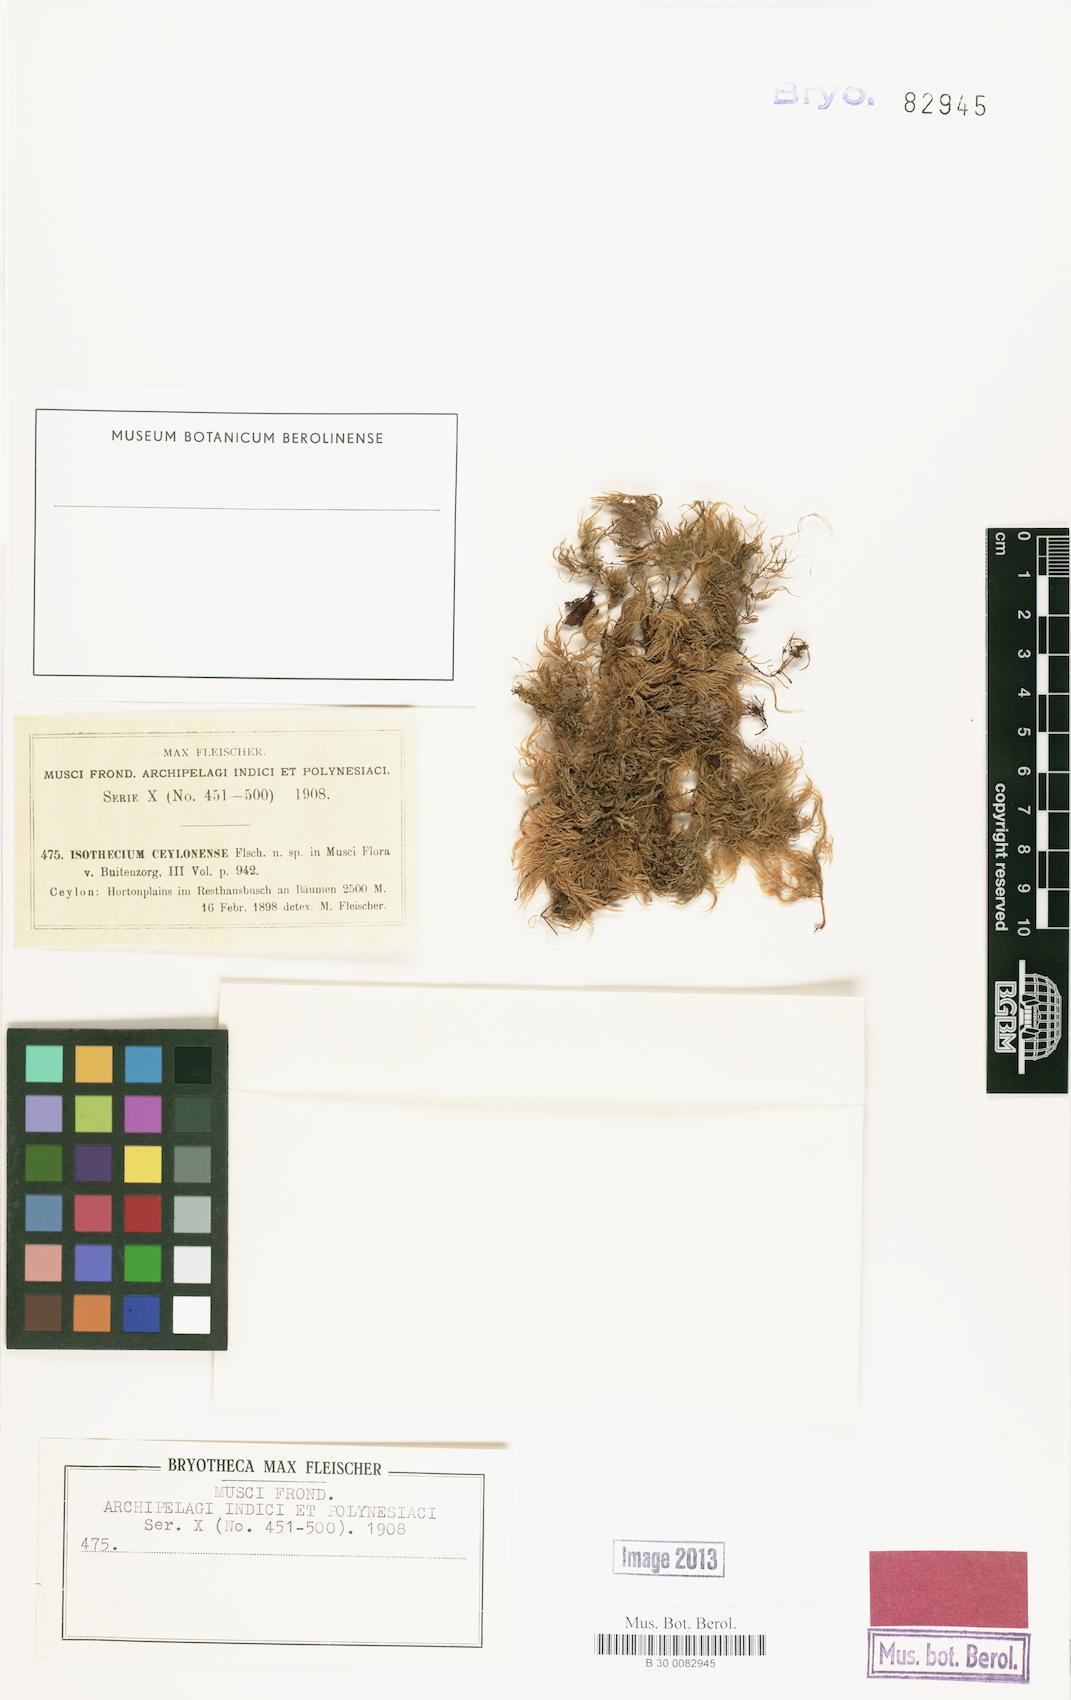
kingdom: Plantae
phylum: Bryophyta
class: Bryopsida
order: Hypnales
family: Lembophyllaceae
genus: Isothecium
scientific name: Isothecium ceylonense
